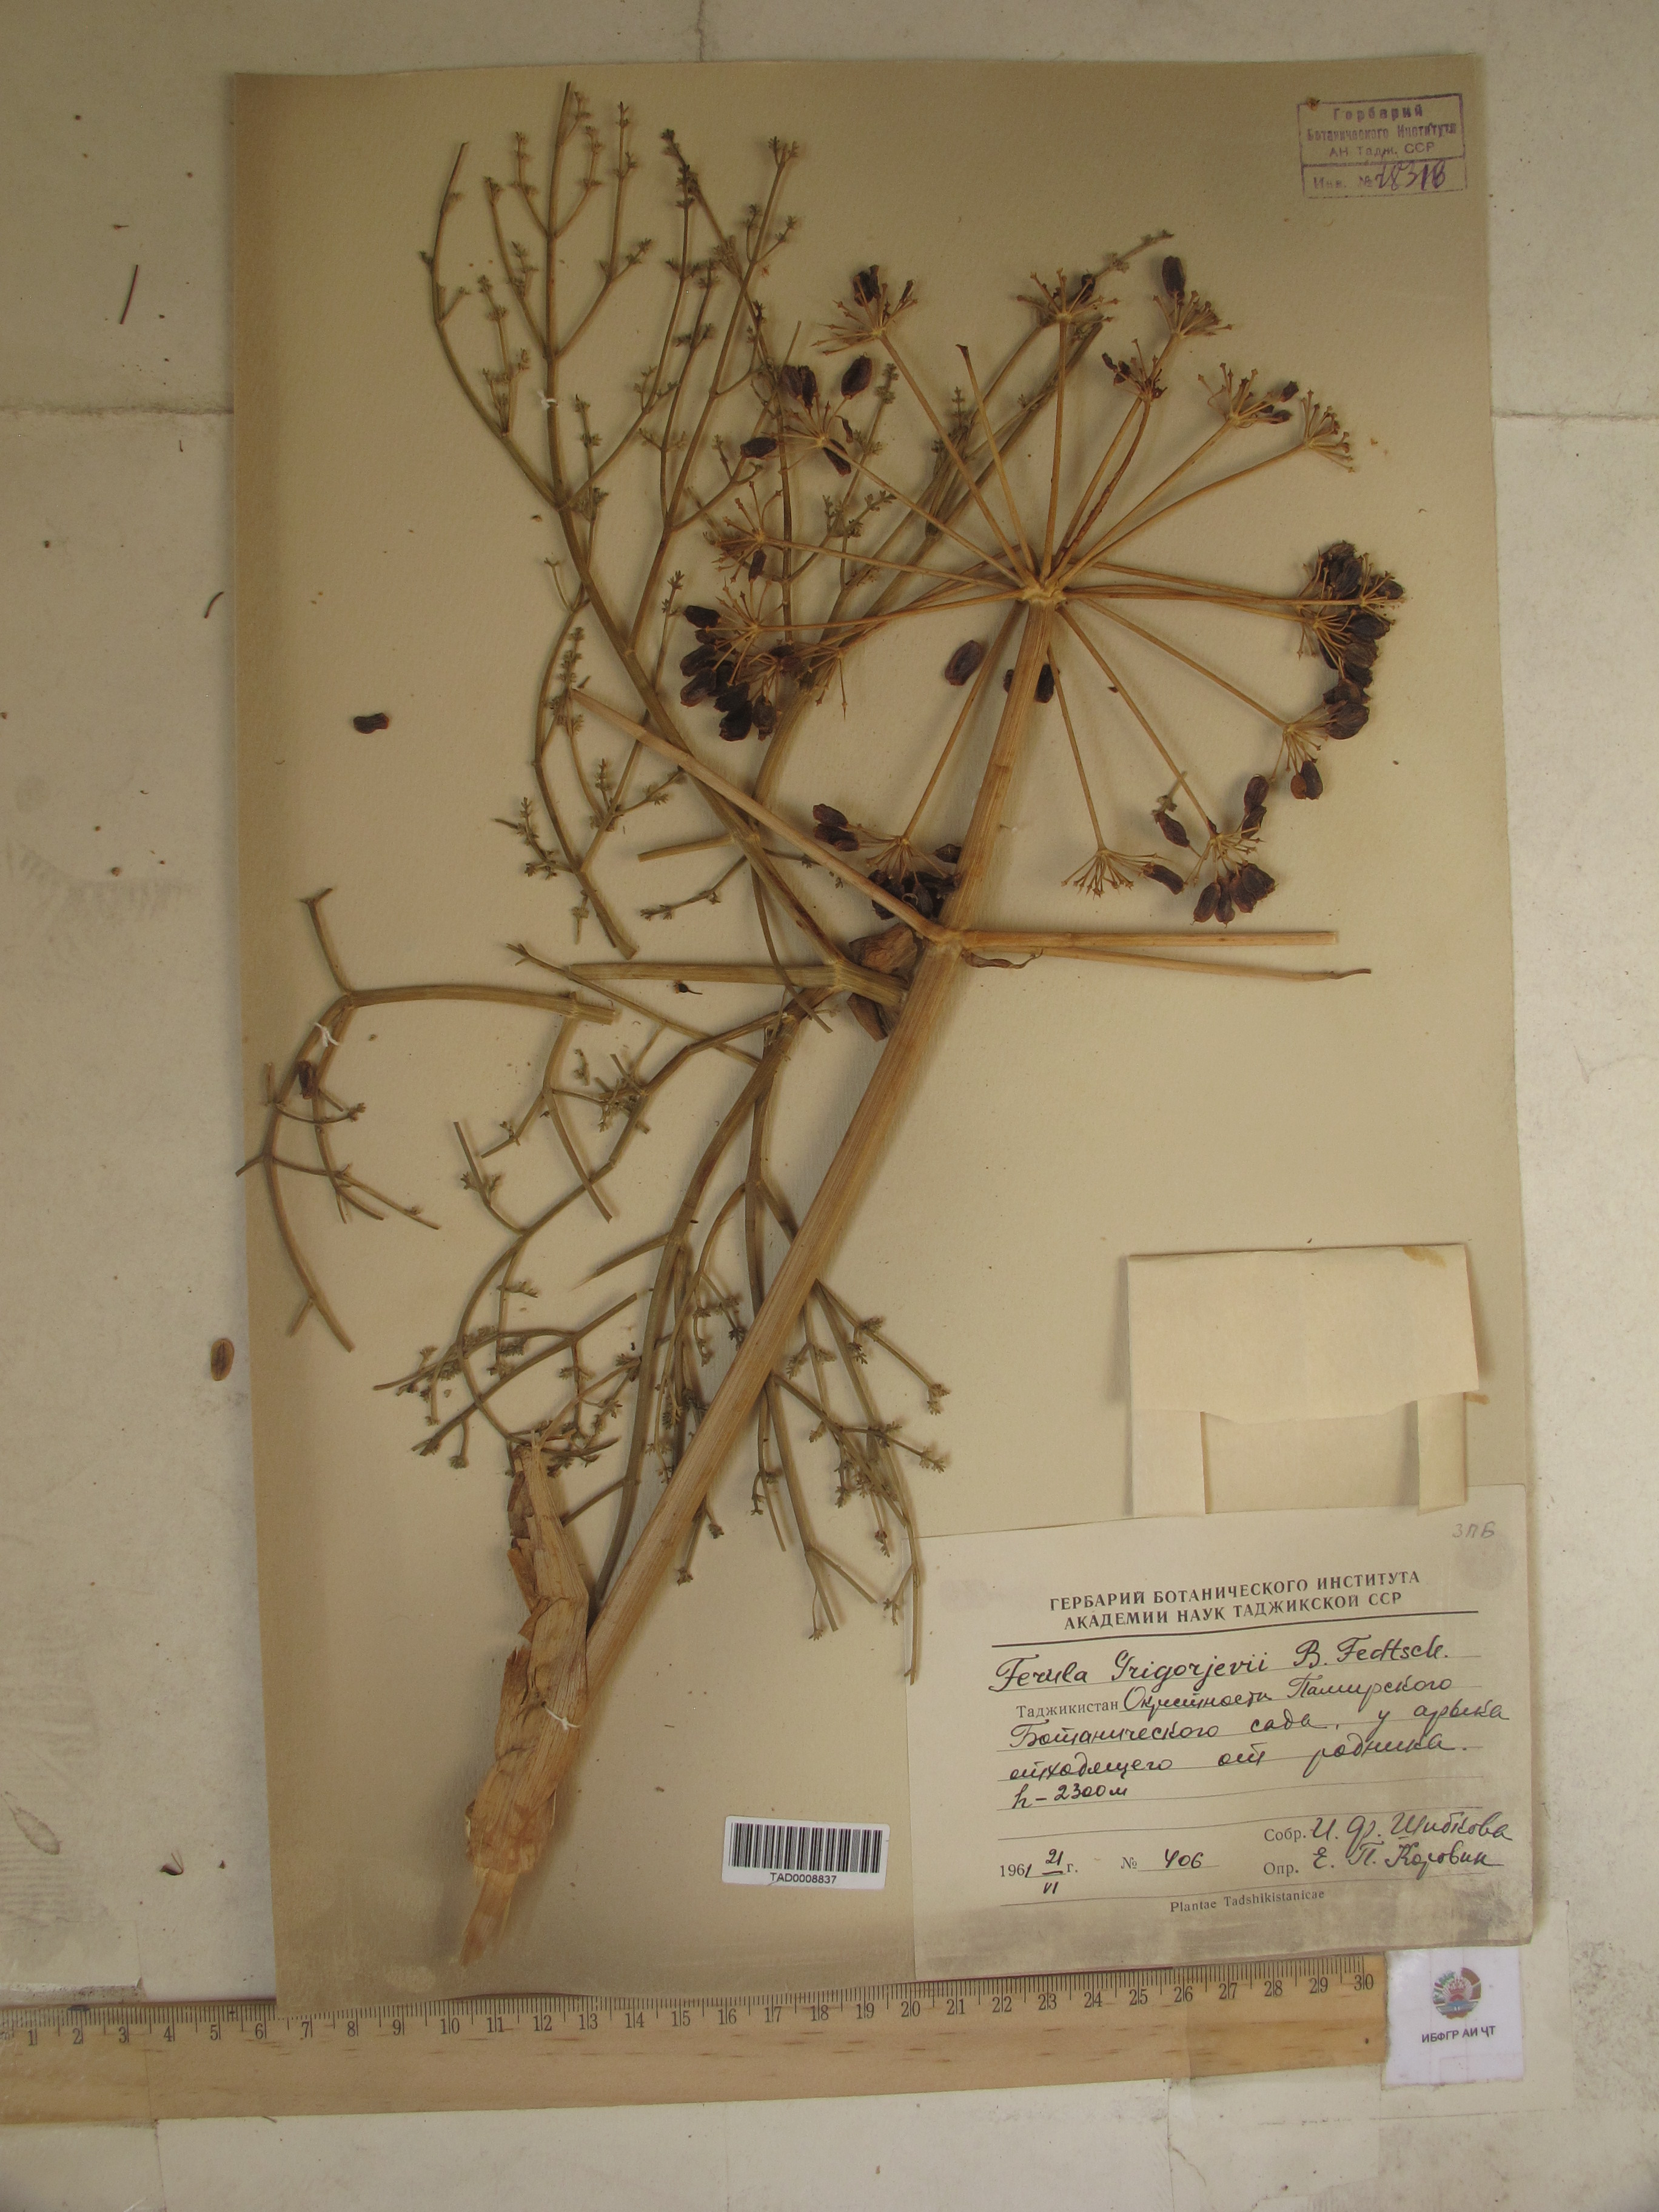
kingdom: Plantae
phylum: Tracheophyta
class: Magnoliopsida
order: Apiales
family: Apiaceae
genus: Ferula
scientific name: Ferula grigoriewii
